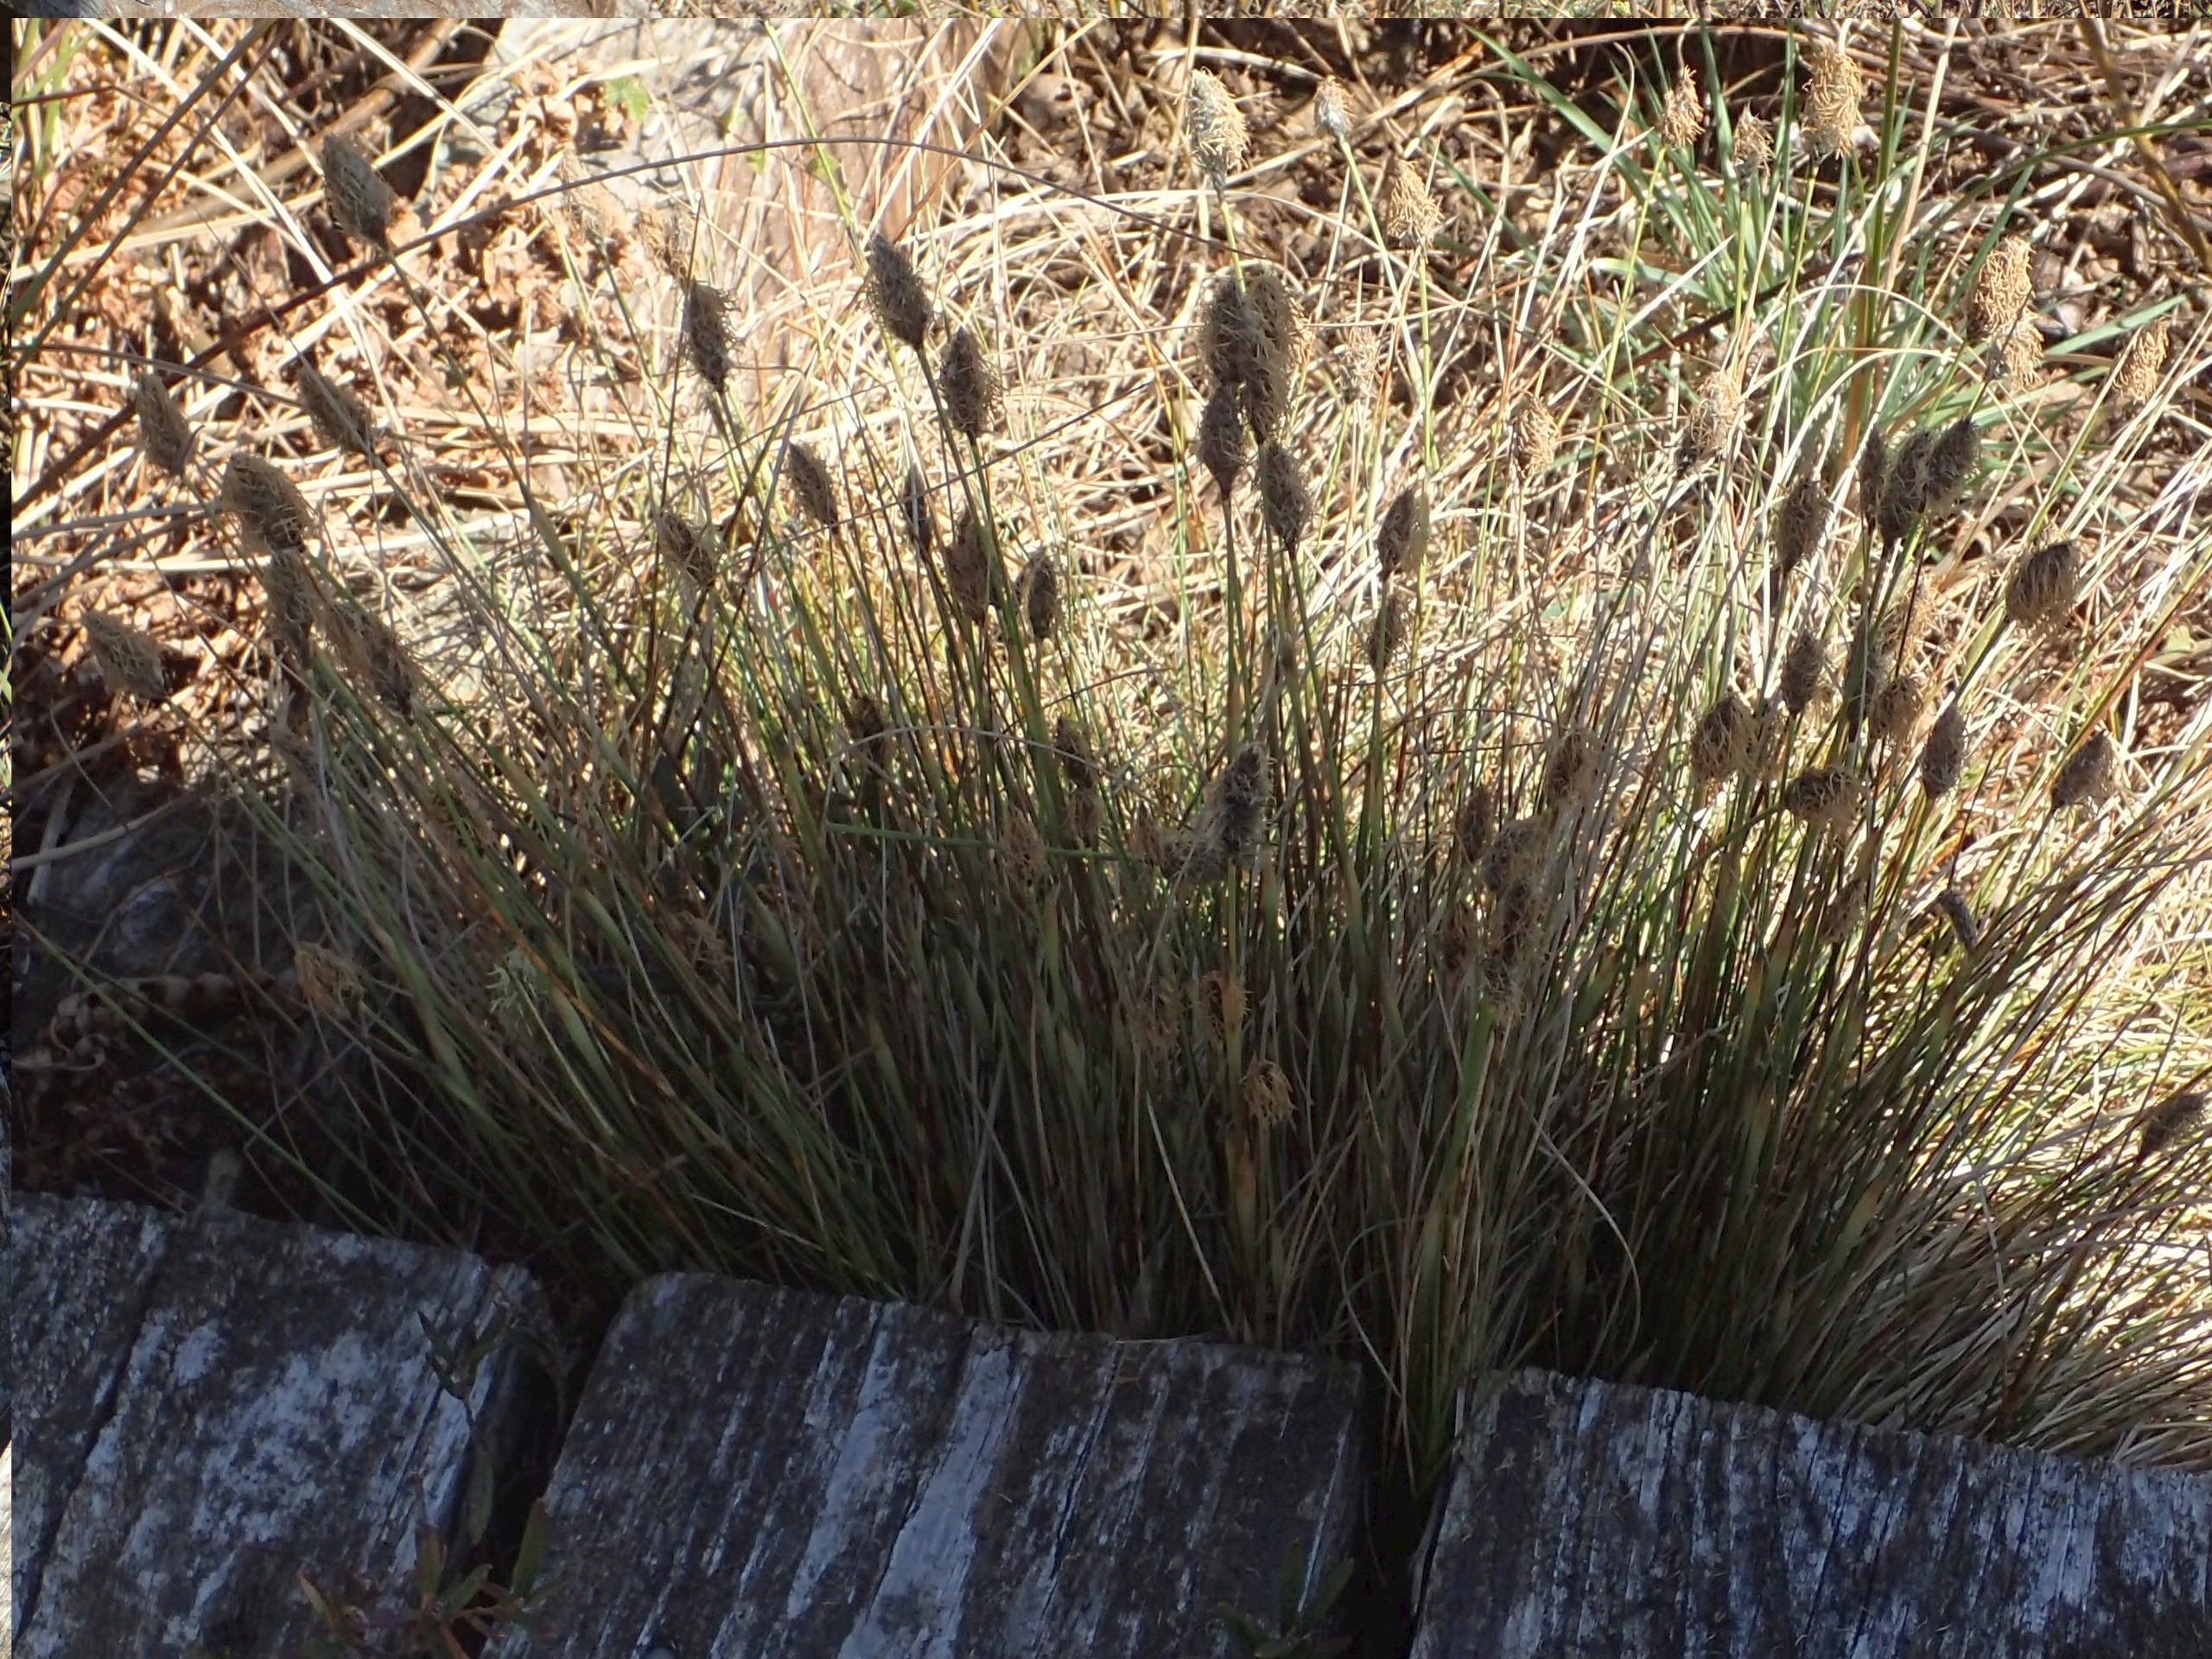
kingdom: Plantae
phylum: Tracheophyta
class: Liliopsida
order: Poales
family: Cyperaceae
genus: Eriophorum
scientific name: Eriophorum vaginatum
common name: Tue-kæruld
